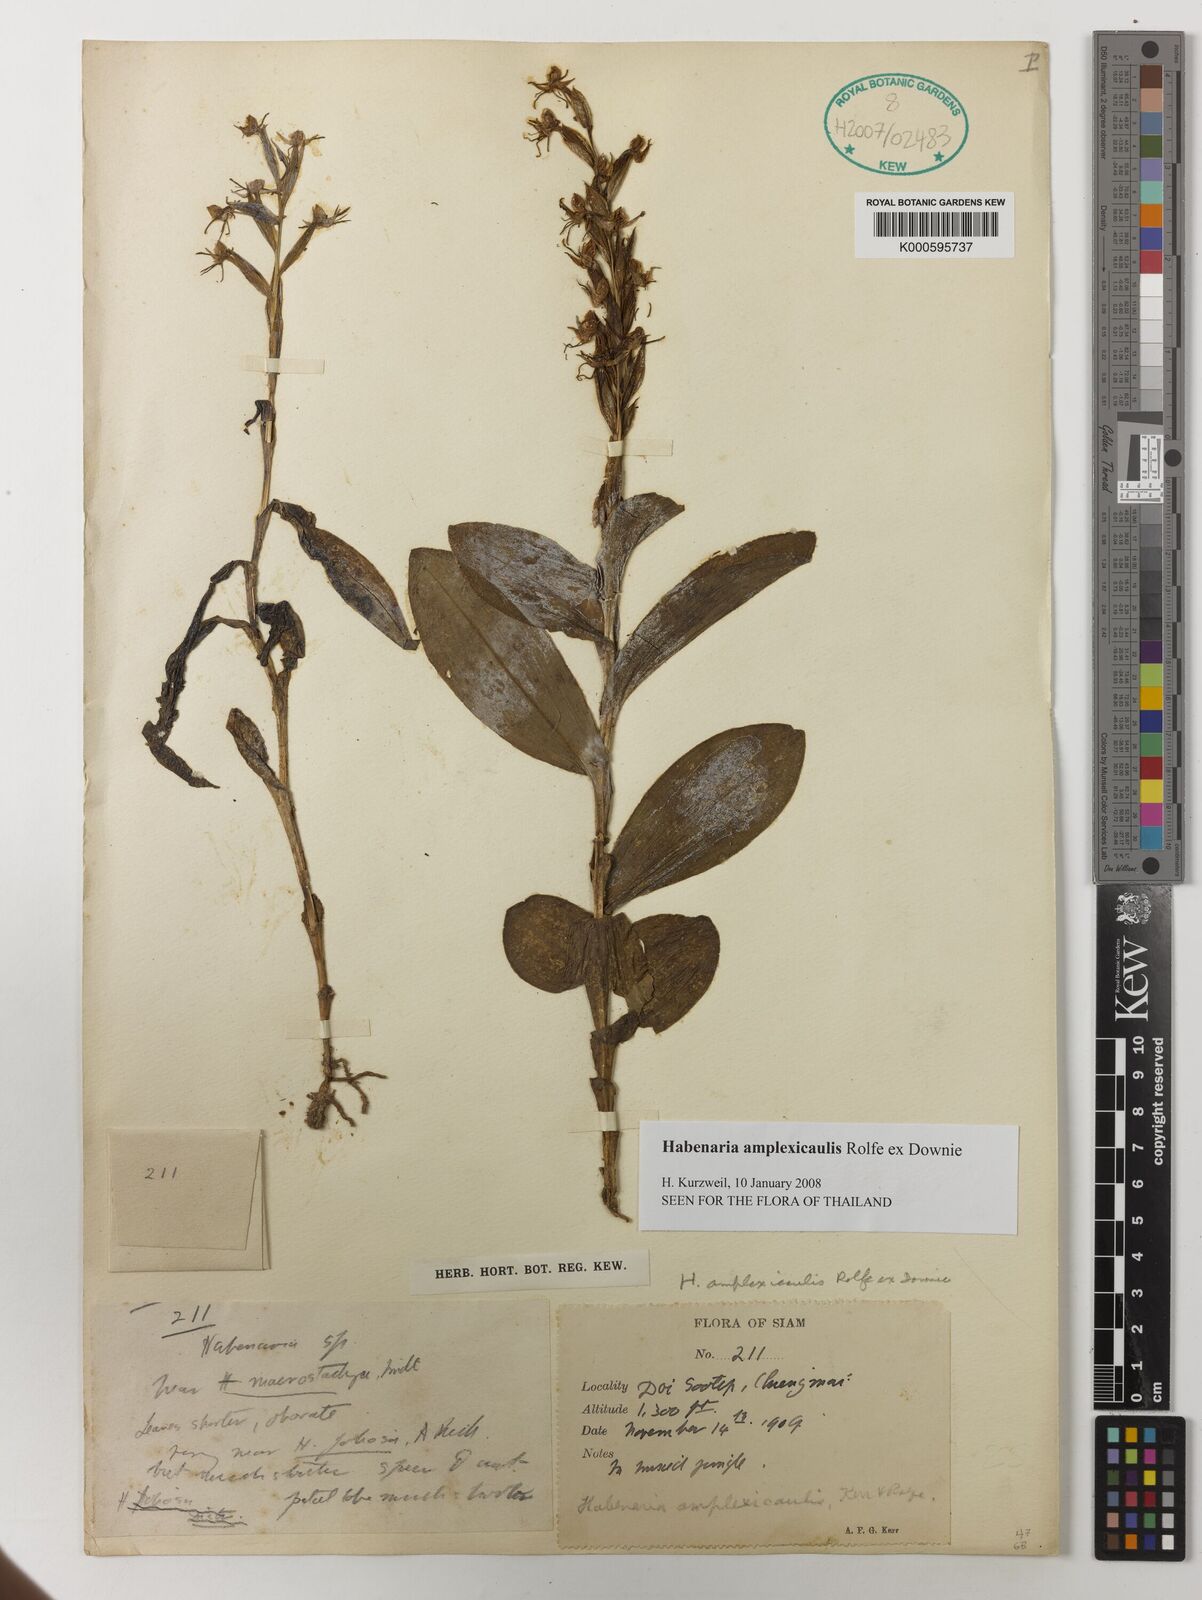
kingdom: Plantae
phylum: Tracheophyta
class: Liliopsida
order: Asparagales
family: Orchidaceae
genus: Habenaria
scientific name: Habenaria amplexicaulis
